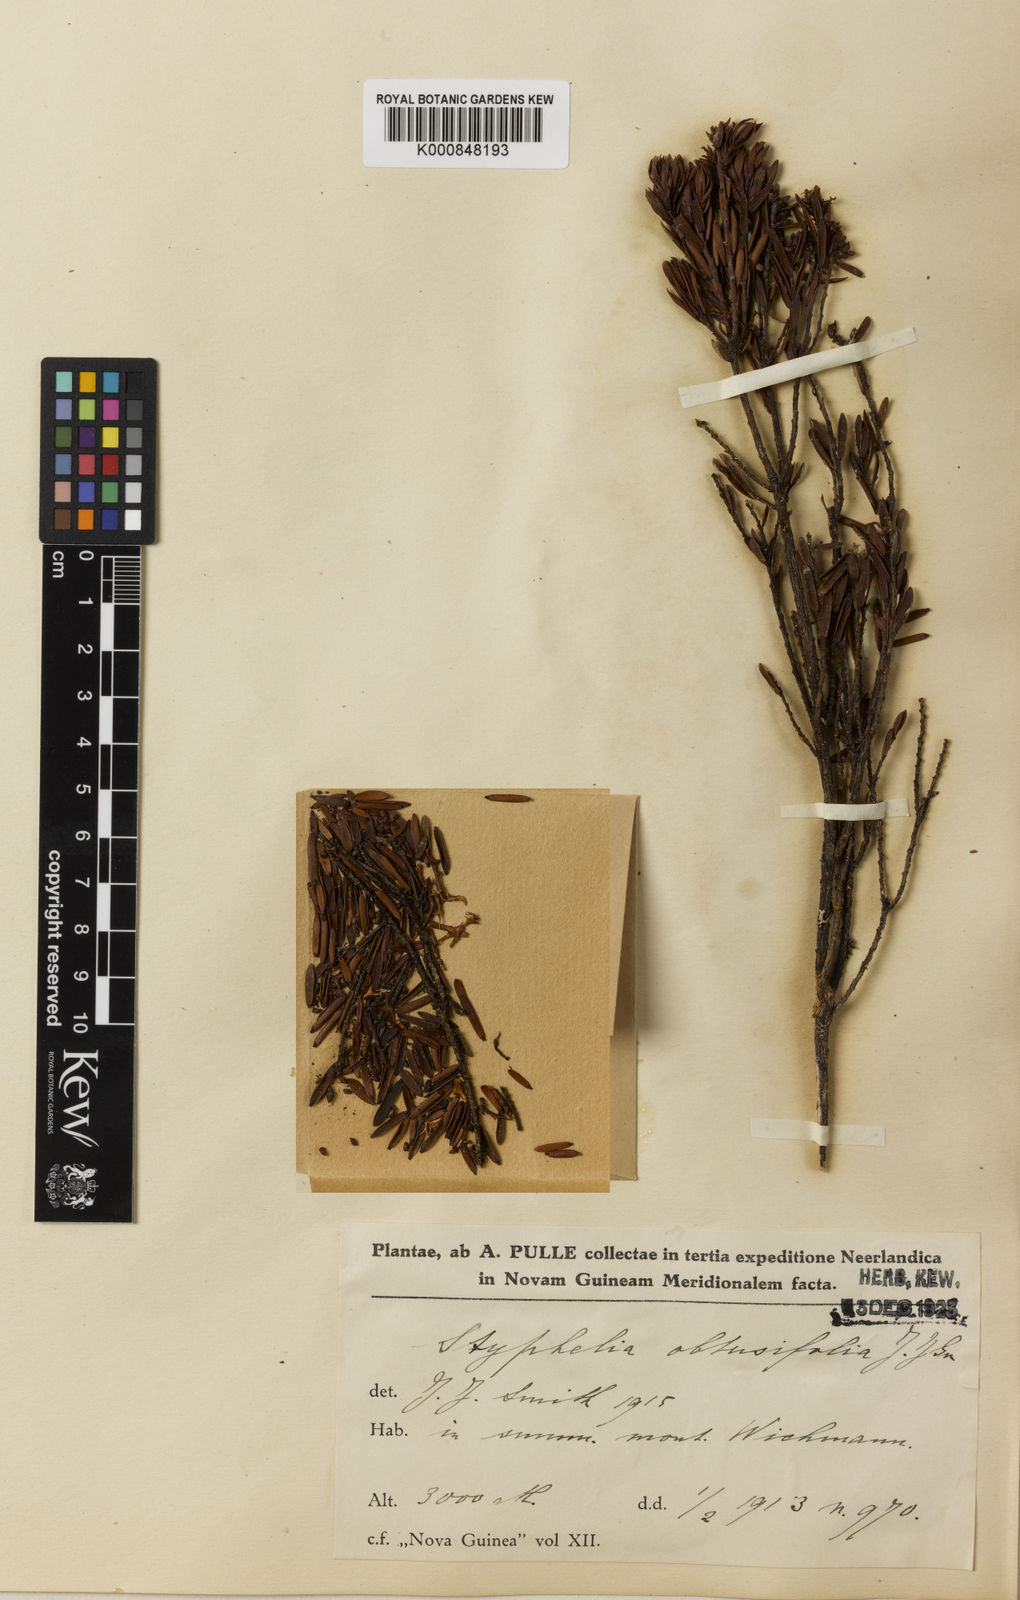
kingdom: Plantae
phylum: Tracheophyta
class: Magnoliopsida
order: Ericales
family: Ericaceae
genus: Styphelia
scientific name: Styphelia
